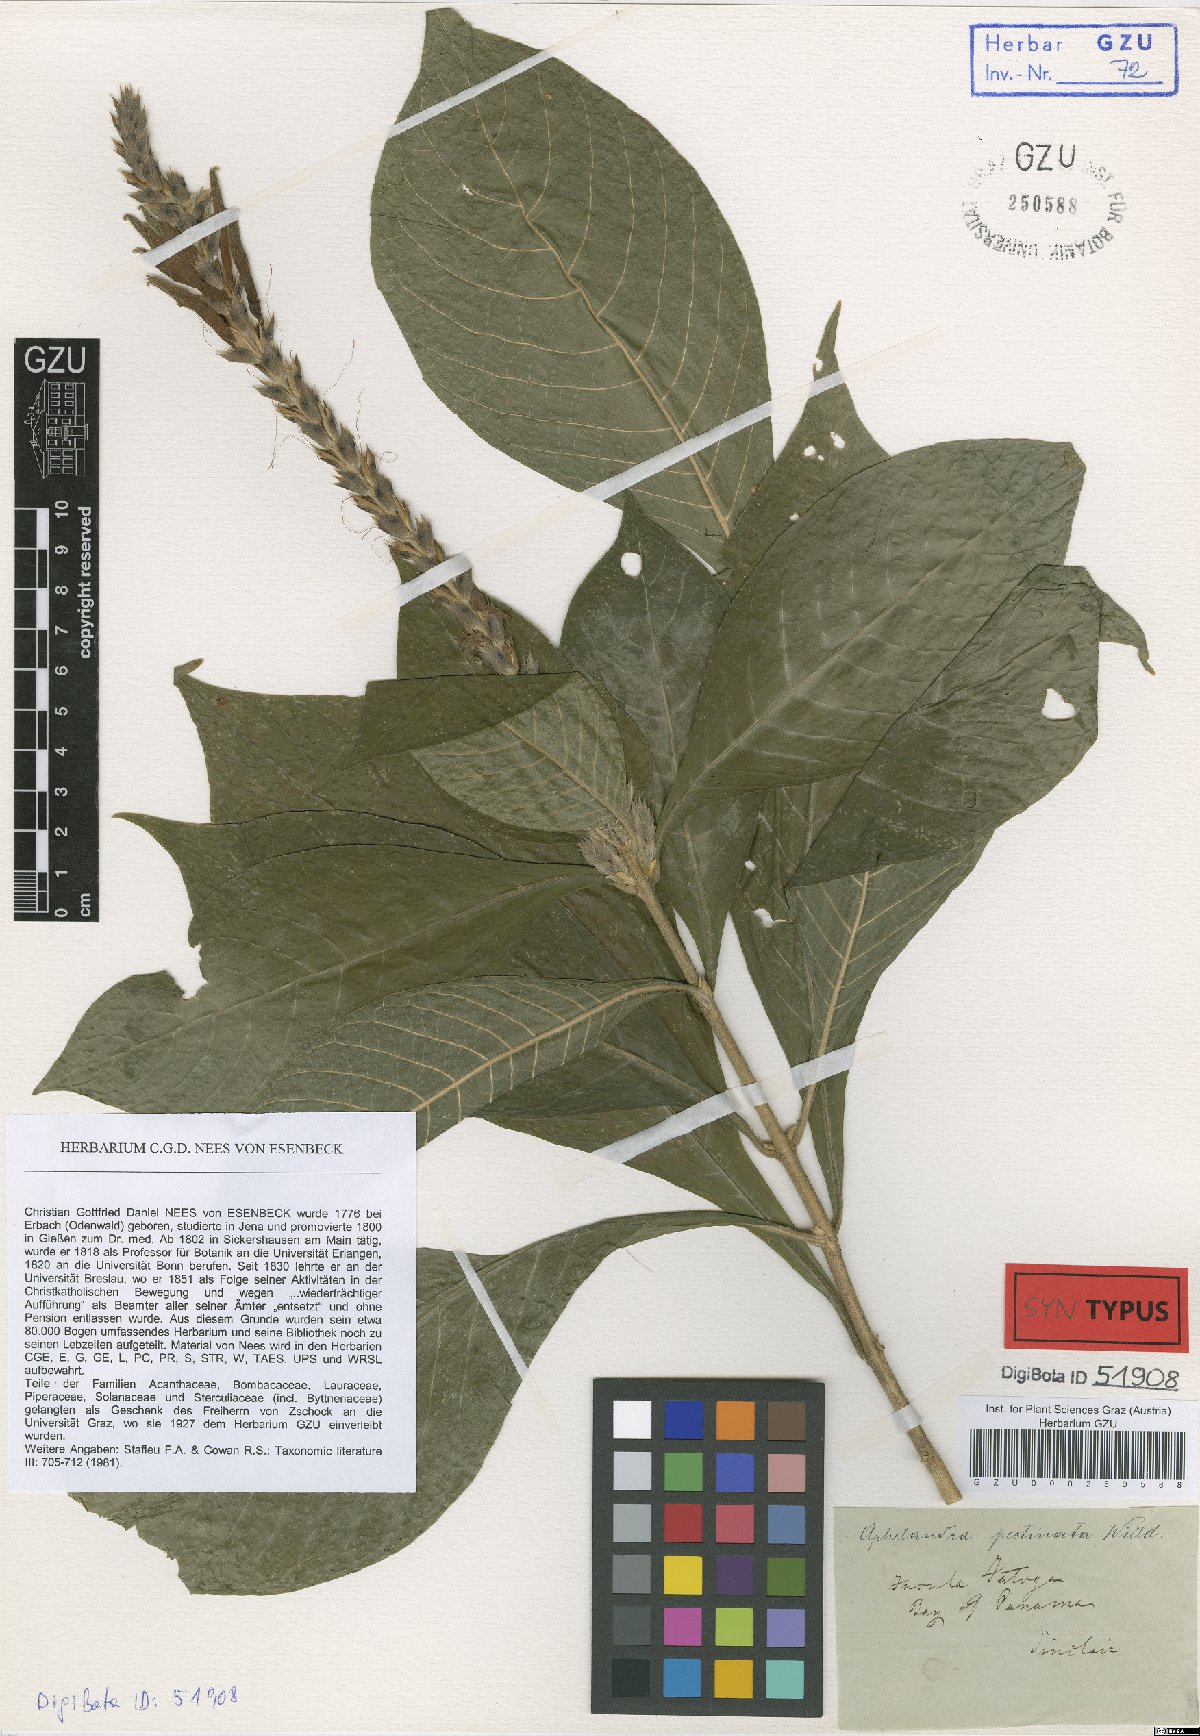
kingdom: Plantae
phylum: Tracheophyta
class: Magnoliopsida
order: Lamiales
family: Acanthaceae
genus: Aphelandra
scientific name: Aphelandra scabra
